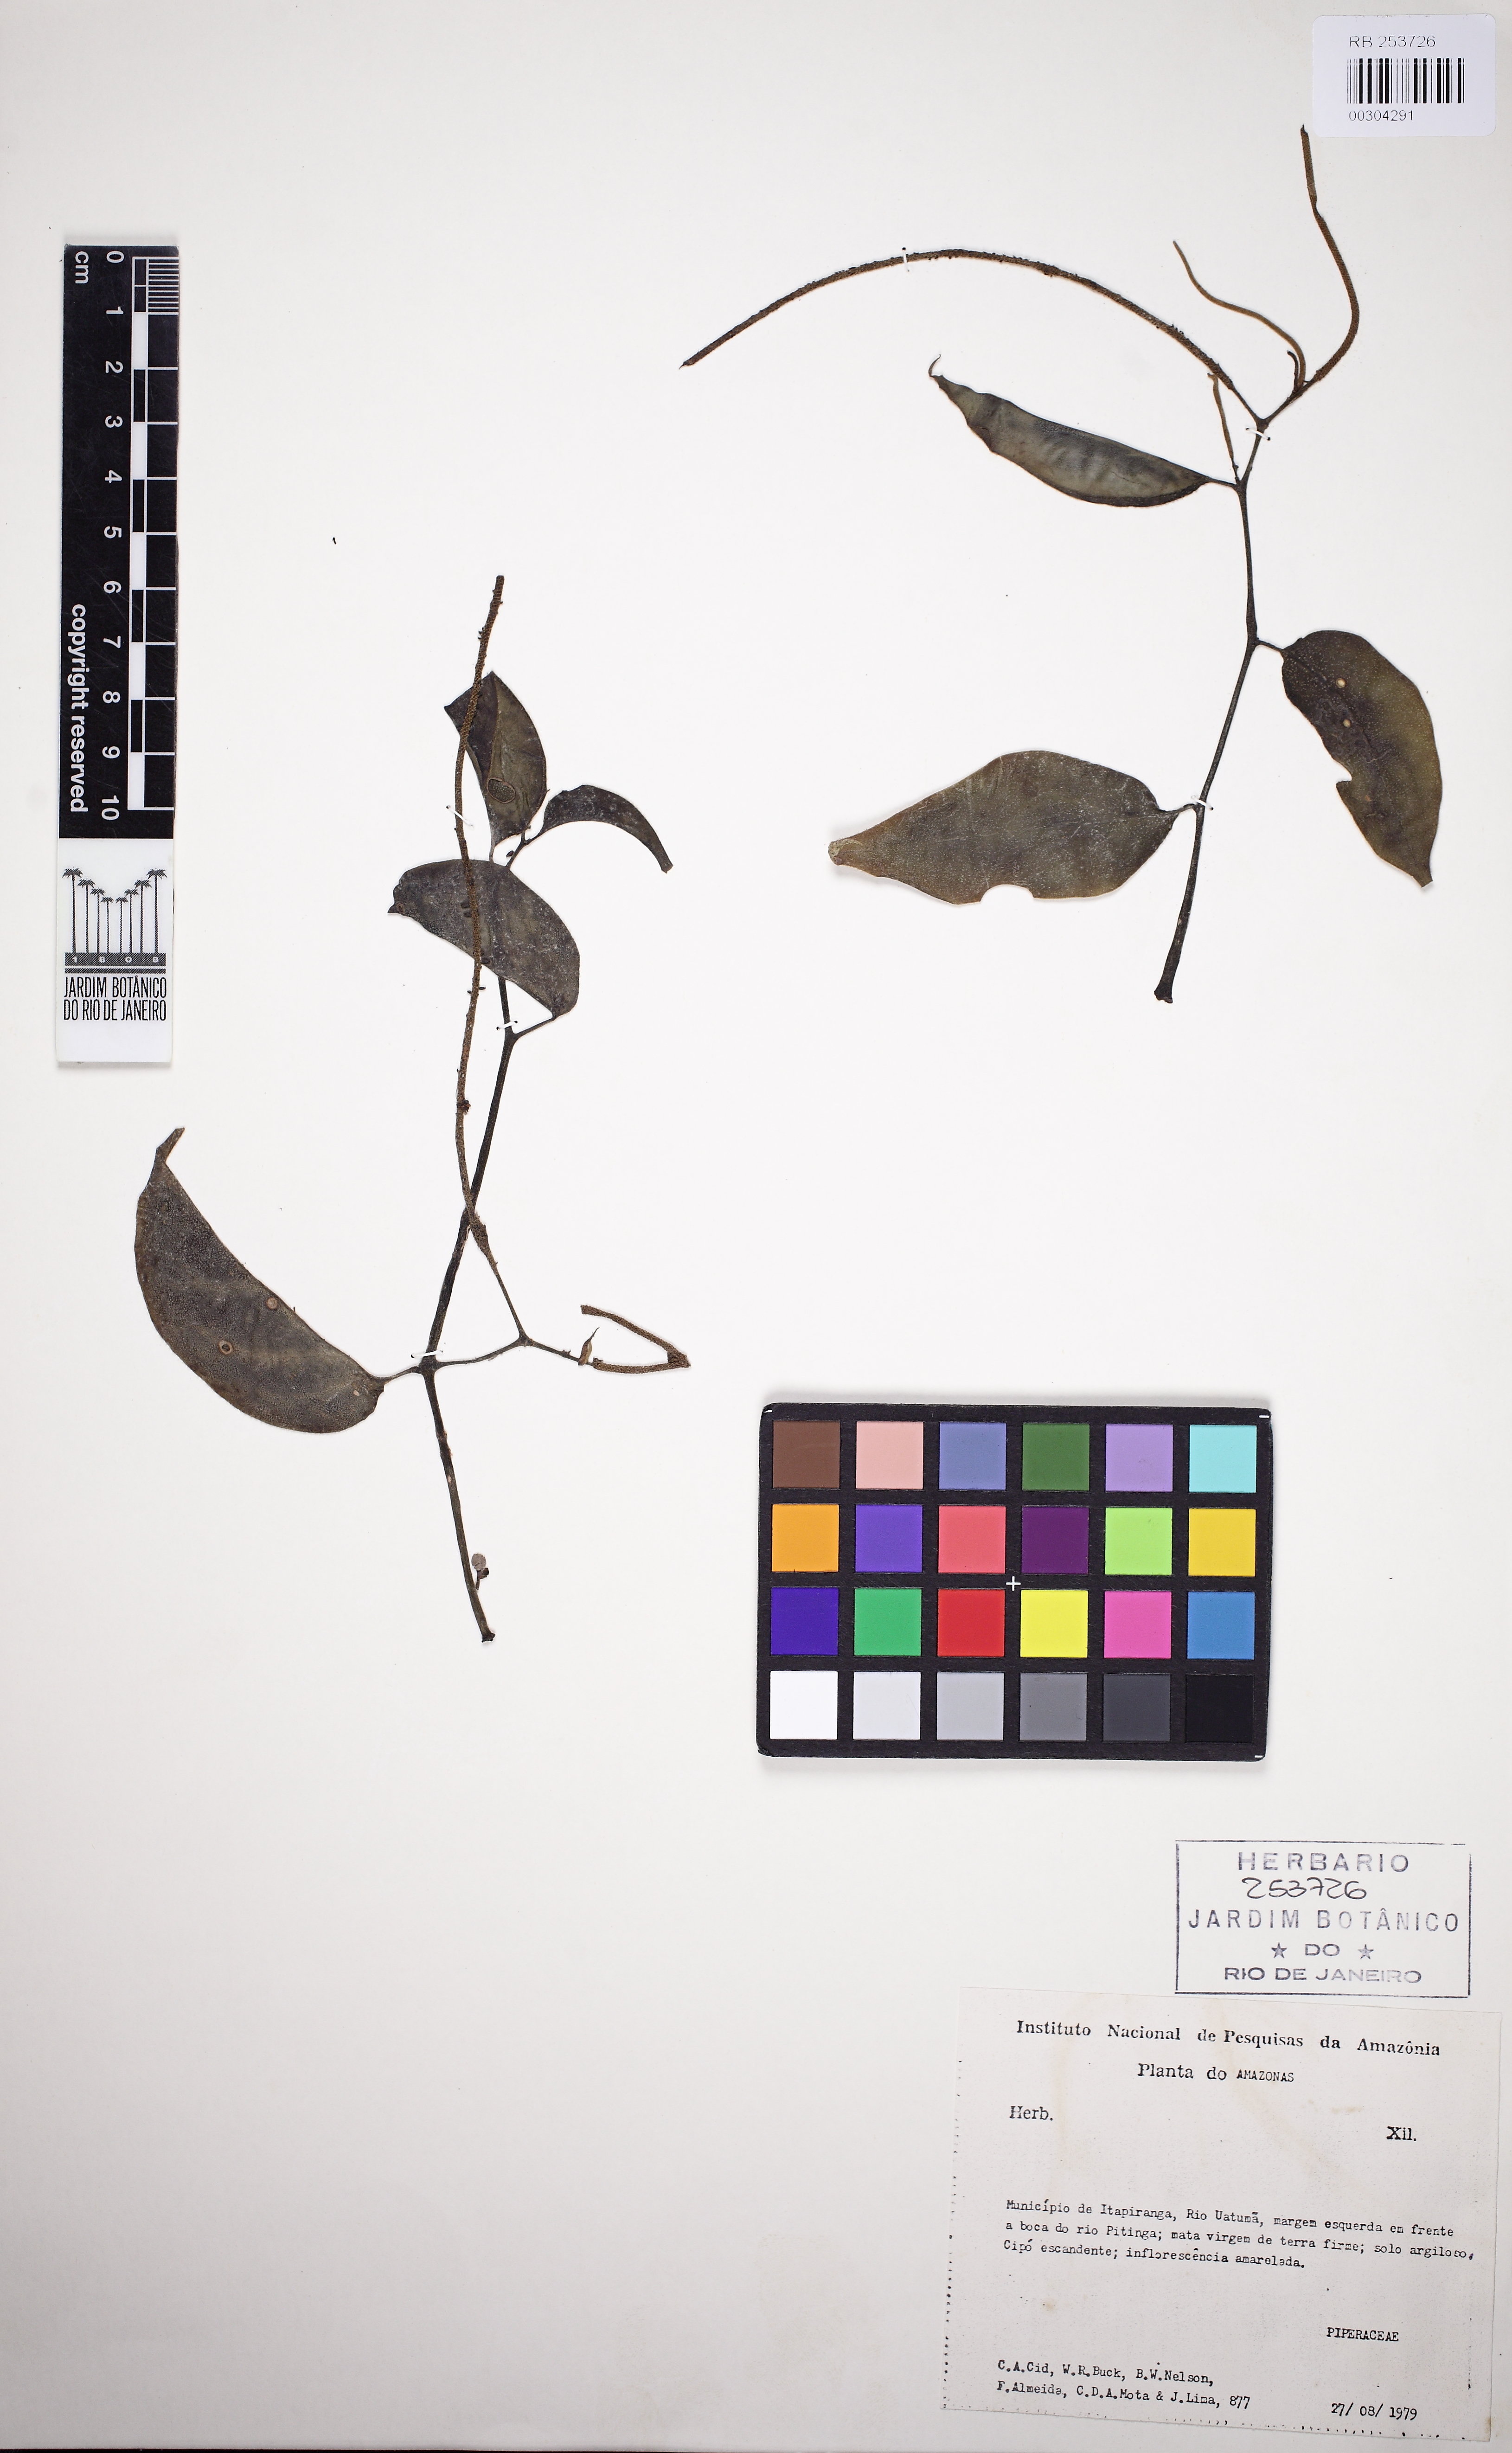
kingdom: Plantae
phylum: Tracheophyta
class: Magnoliopsida
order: Piperales
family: Piperaceae
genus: Peperomia
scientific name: Peperomia macrostachyos
